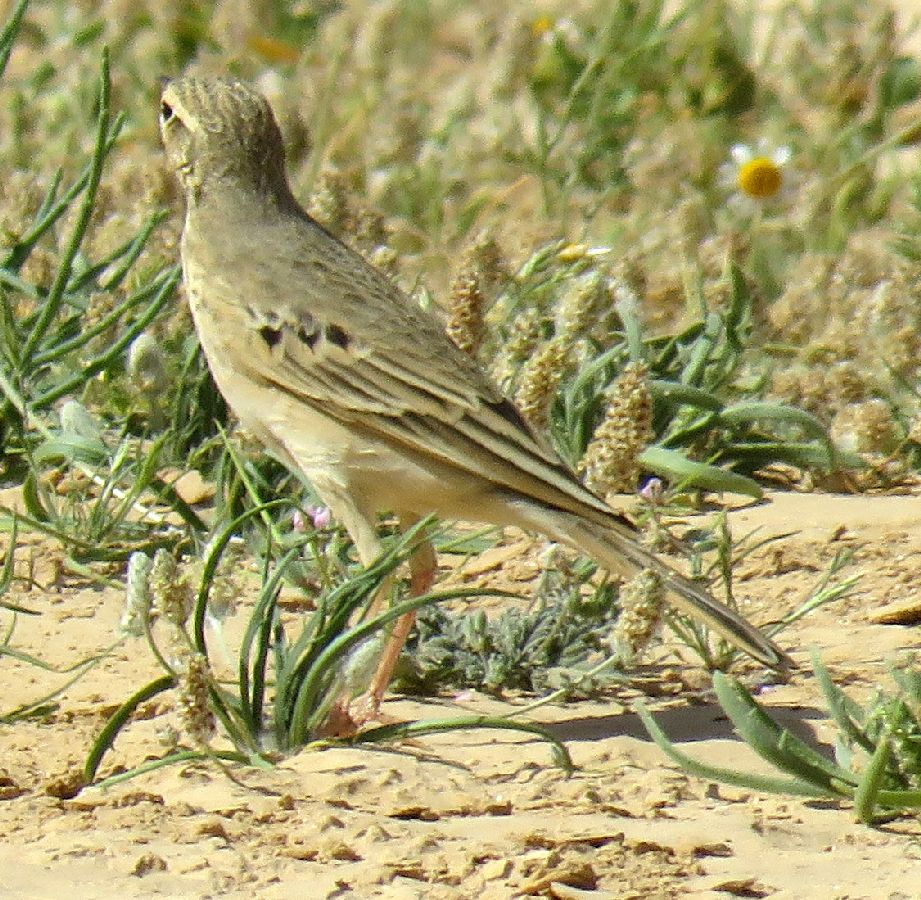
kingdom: Animalia
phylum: Chordata
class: Aves
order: Passeriformes
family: Motacillidae
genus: Anthus
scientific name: Anthus similis
